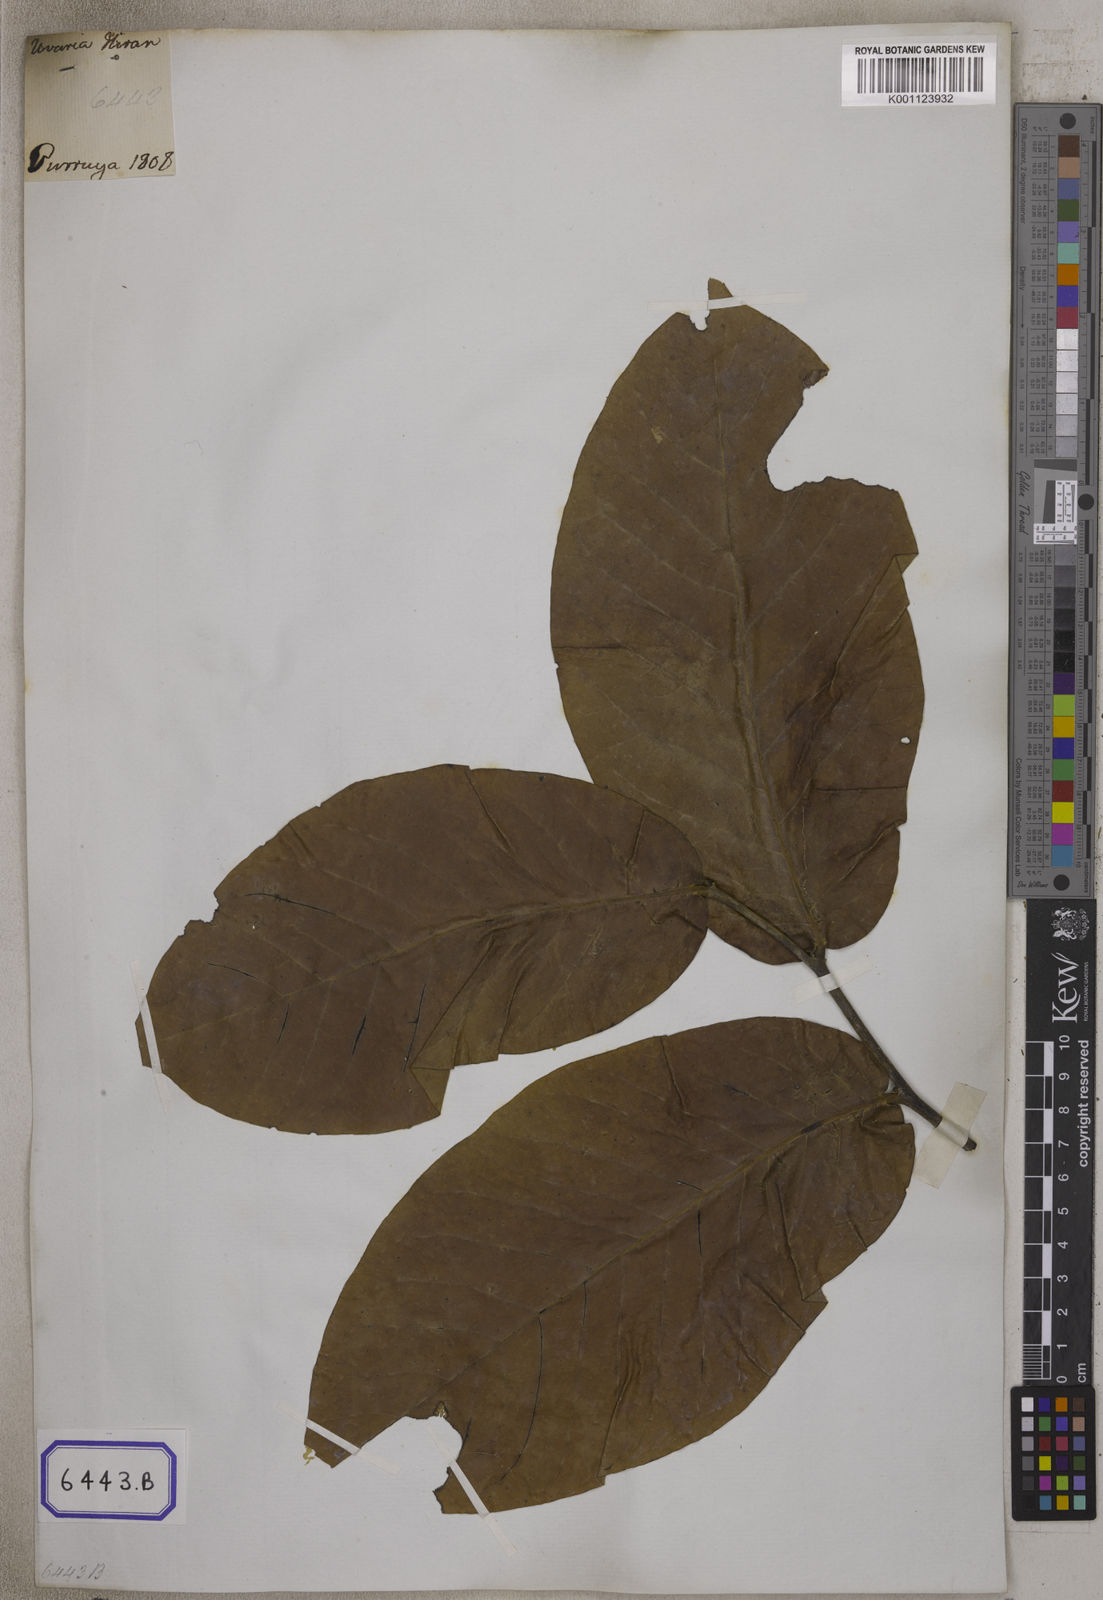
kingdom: Plantae
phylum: Tracheophyta
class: Magnoliopsida
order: Magnoliales
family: Annonaceae
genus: Guatteria
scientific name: Guatteria
